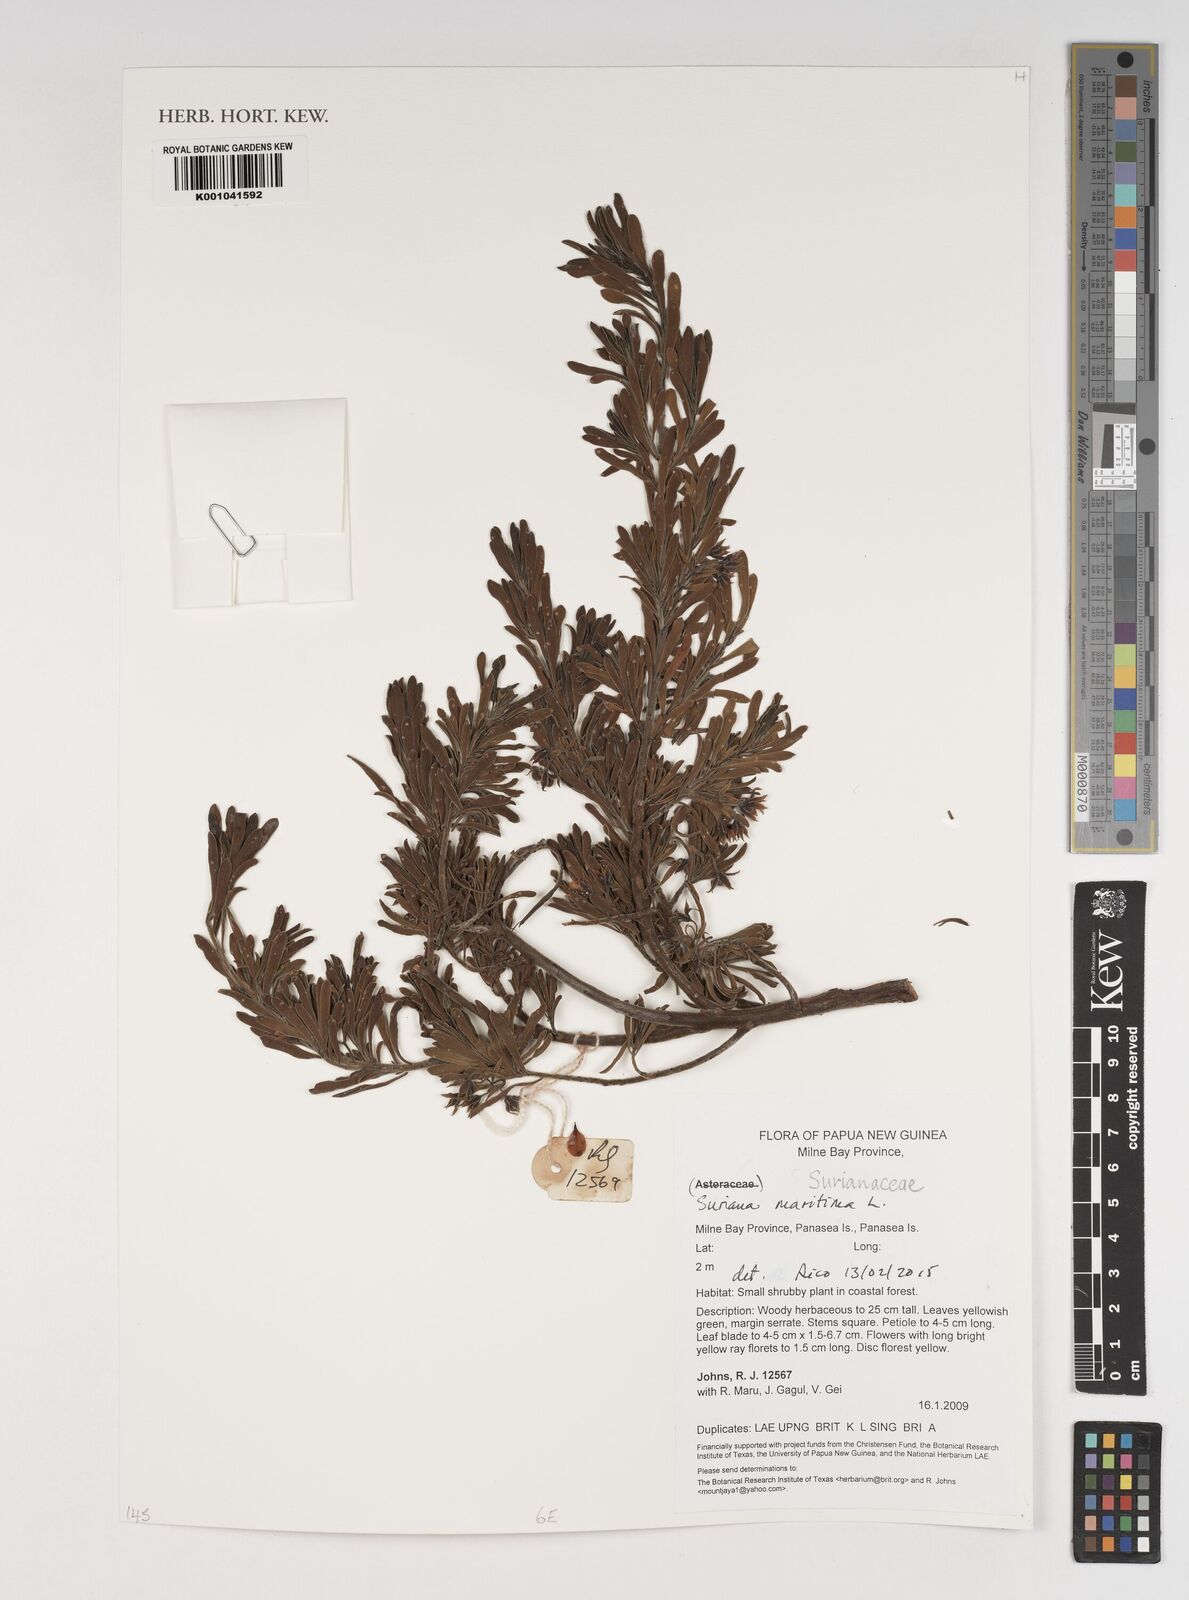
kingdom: Plantae
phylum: Tracheophyta
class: Magnoliopsida
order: Fabales
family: Surianaceae
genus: Suriana
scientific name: Suriana maritima
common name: Bay-cedar
